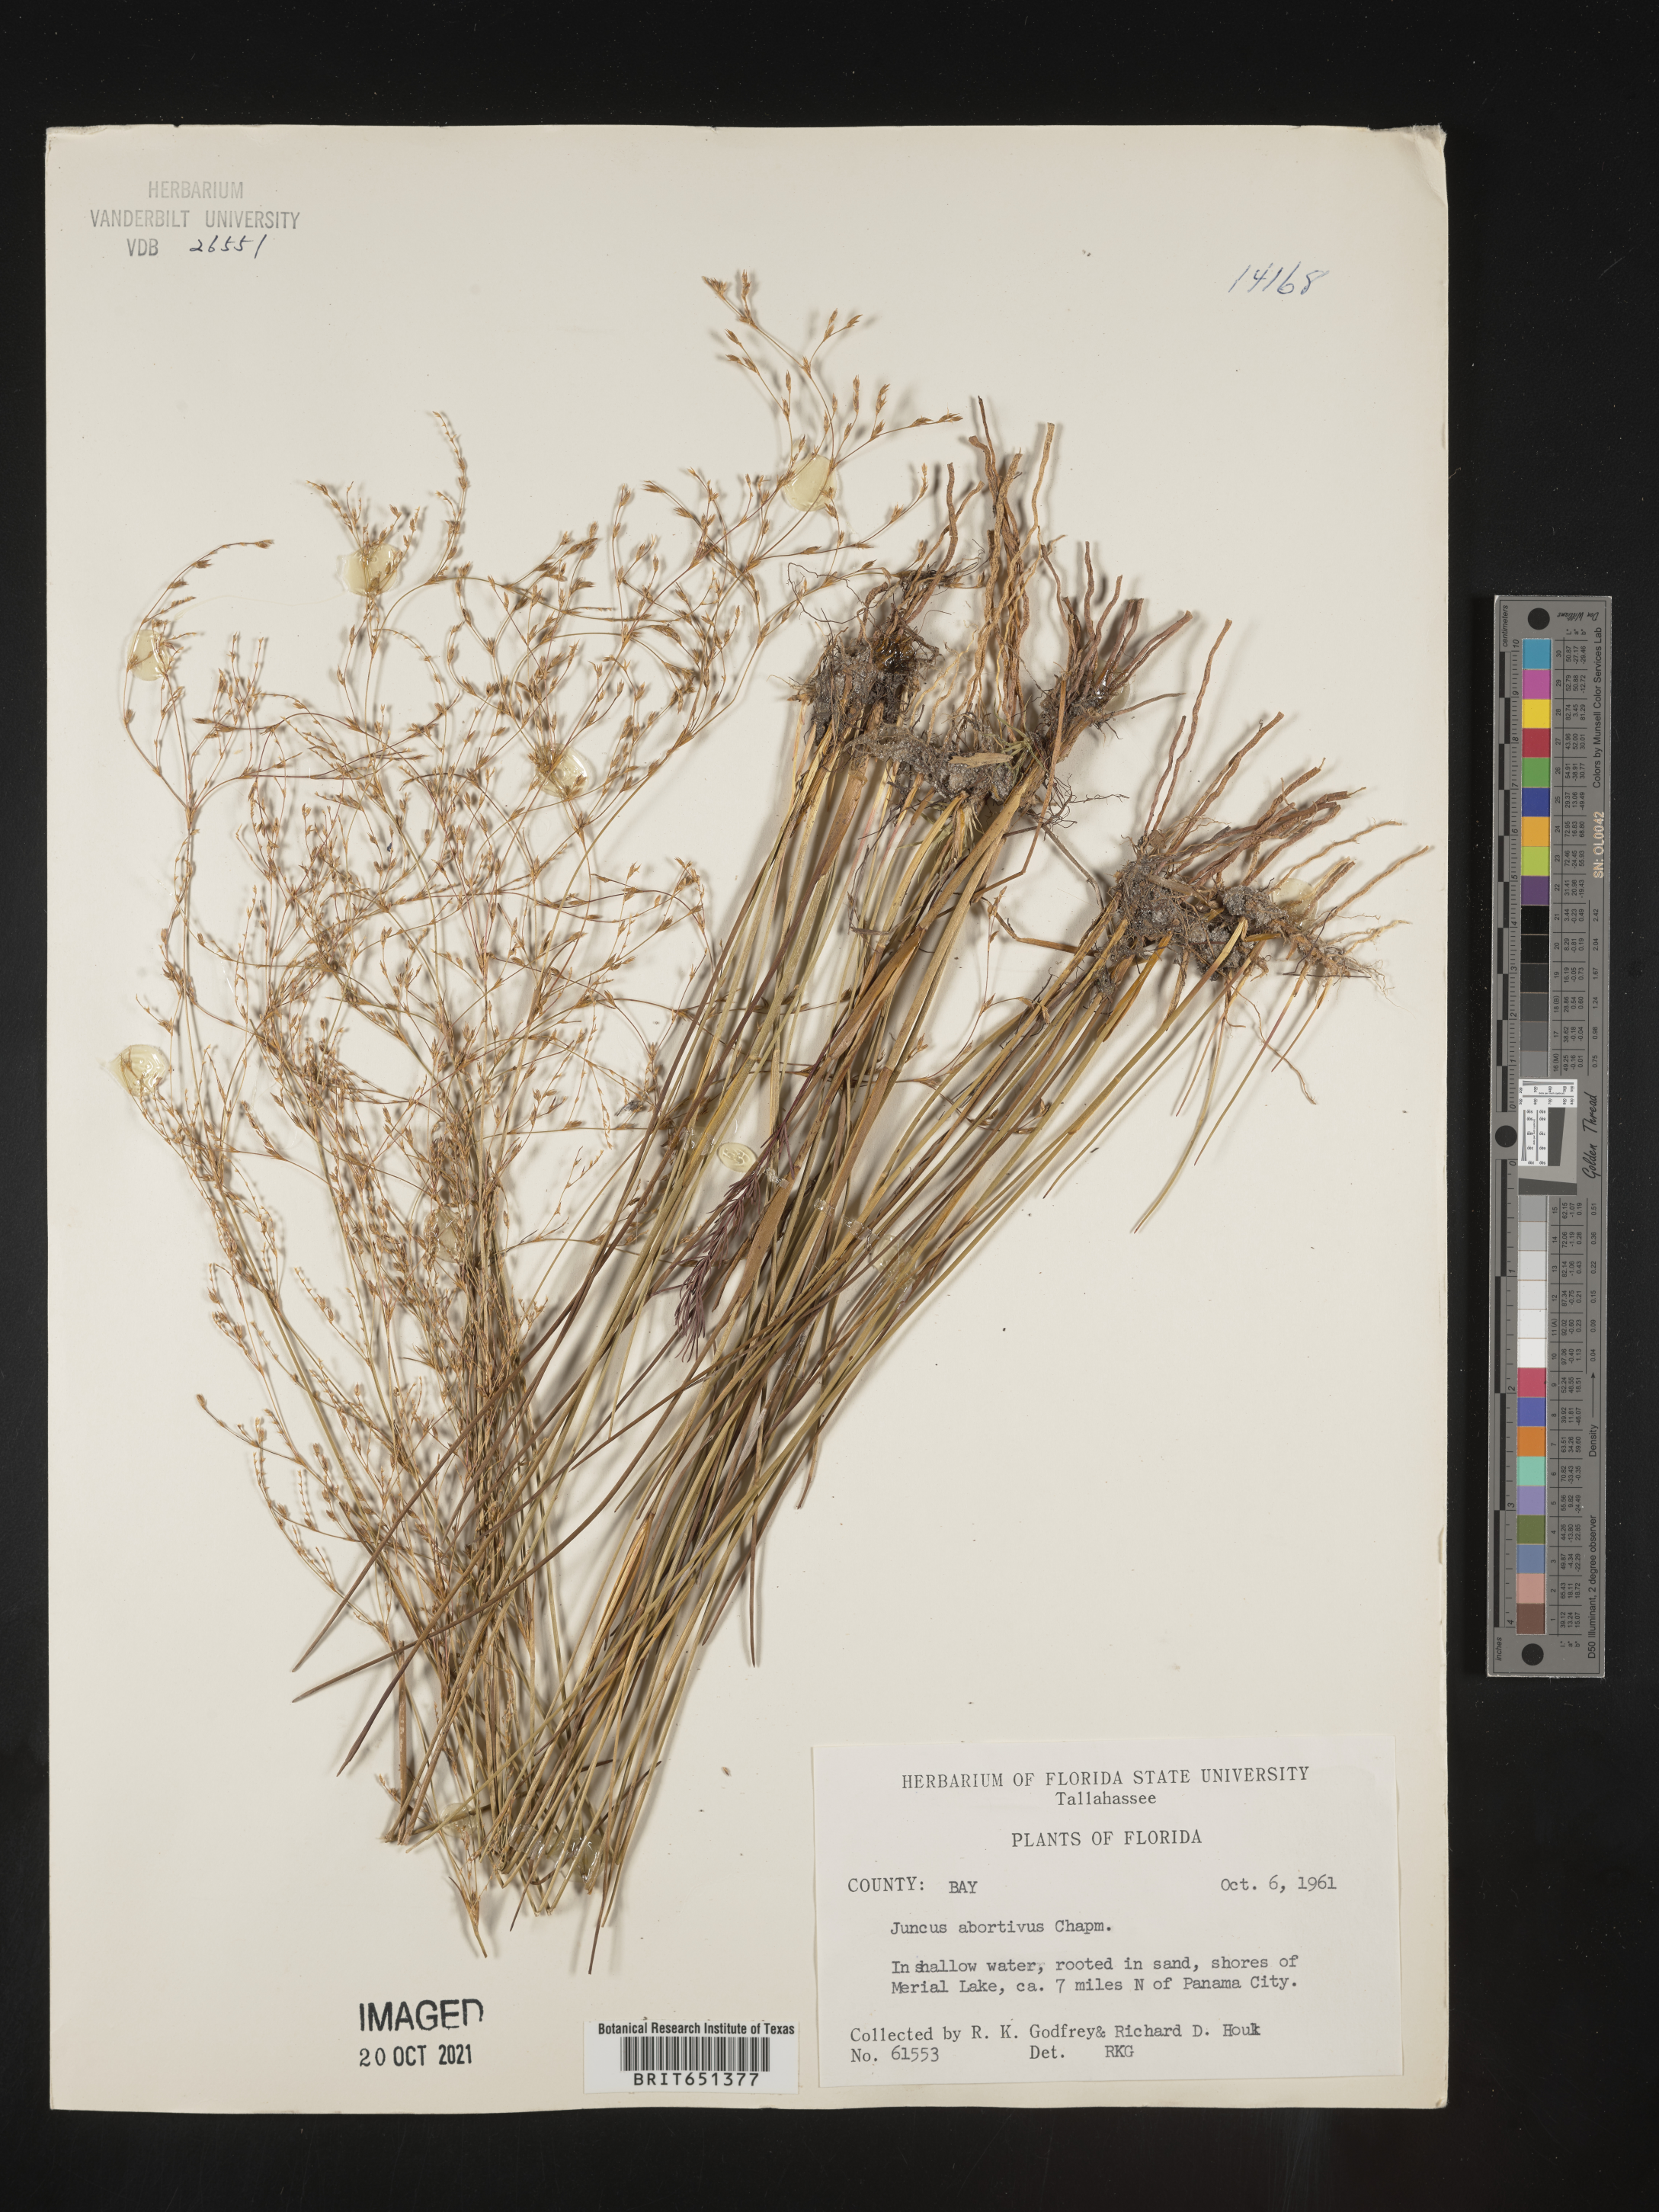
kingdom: Plantae
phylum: Tracheophyta
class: Liliopsida
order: Poales
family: Juncaceae
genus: Juncus
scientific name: Juncus abortivus
